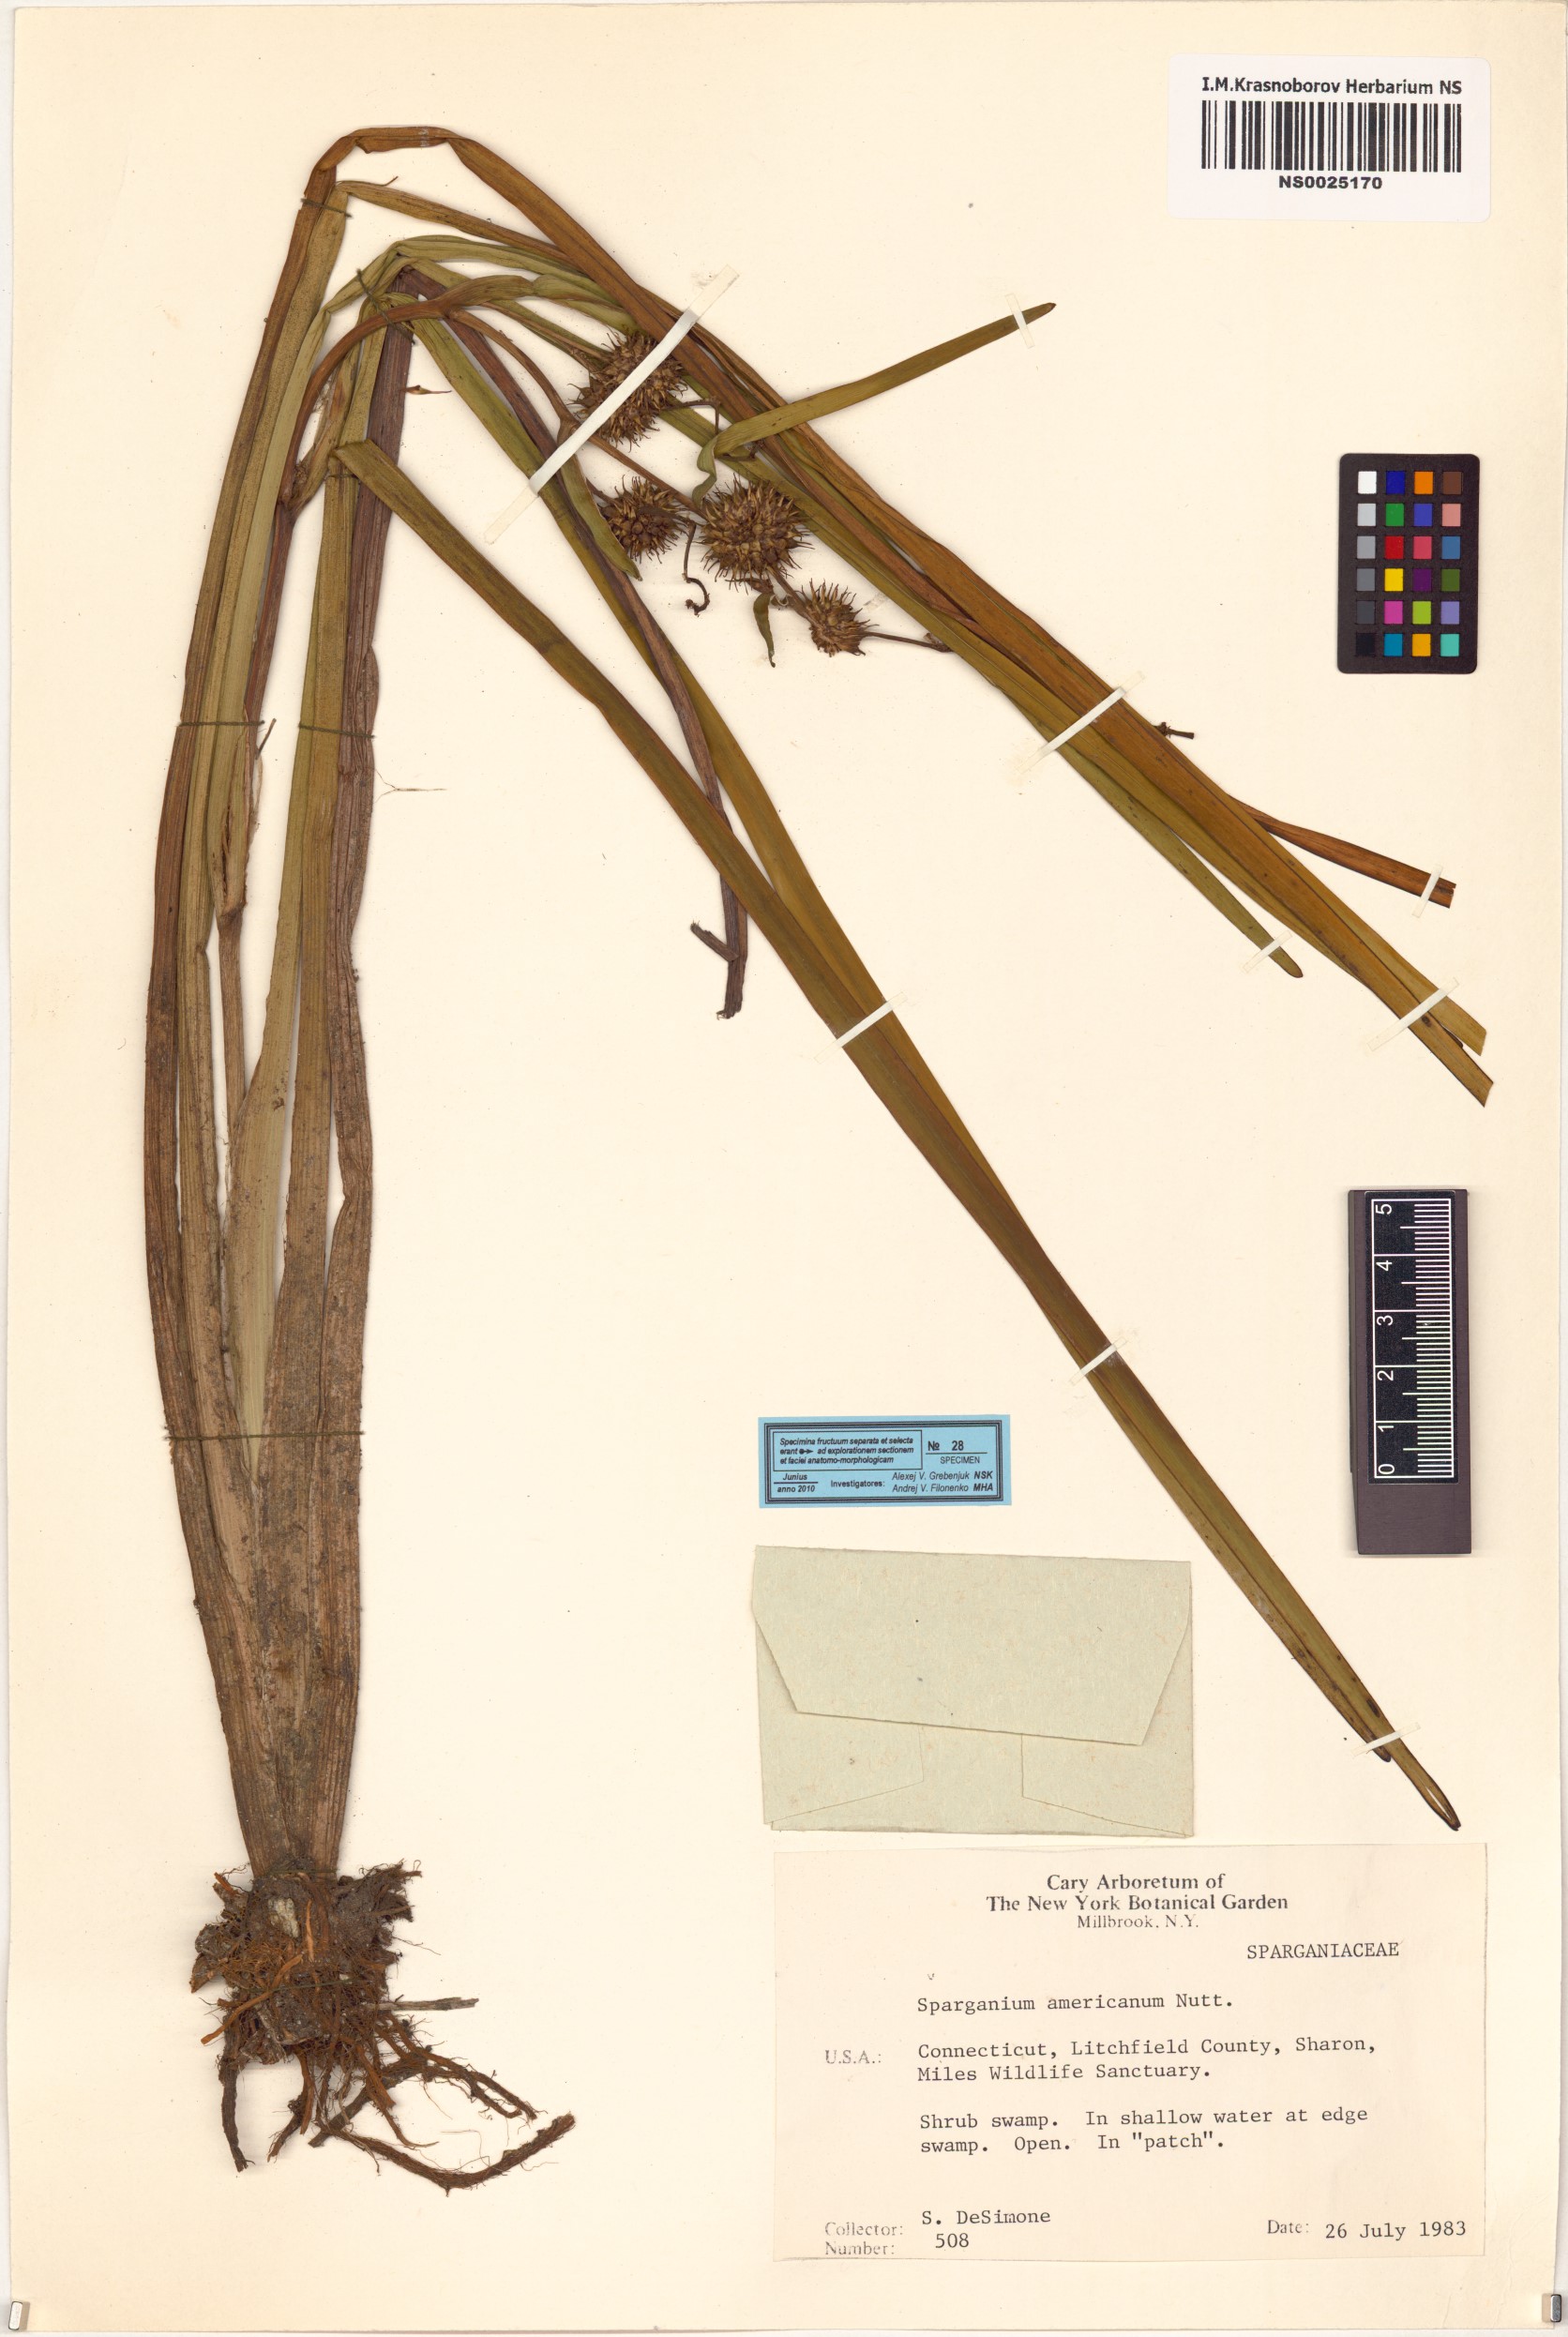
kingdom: Plantae
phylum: Tracheophyta
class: Liliopsida
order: Poales
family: Typhaceae
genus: Sparganium
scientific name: Sparganium americanum
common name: American burreed
